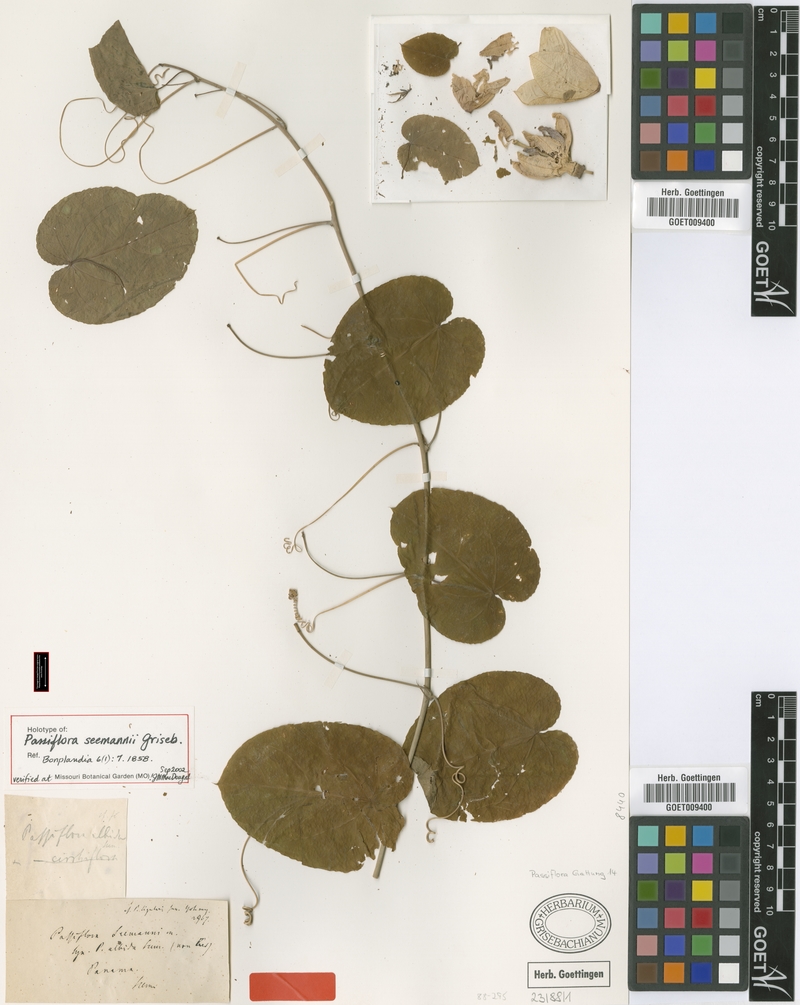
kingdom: Plantae
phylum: Tracheophyta
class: Magnoliopsida
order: Malpighiales
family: Passifloraceae
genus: Passiflora
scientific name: Passiflora seemannii
